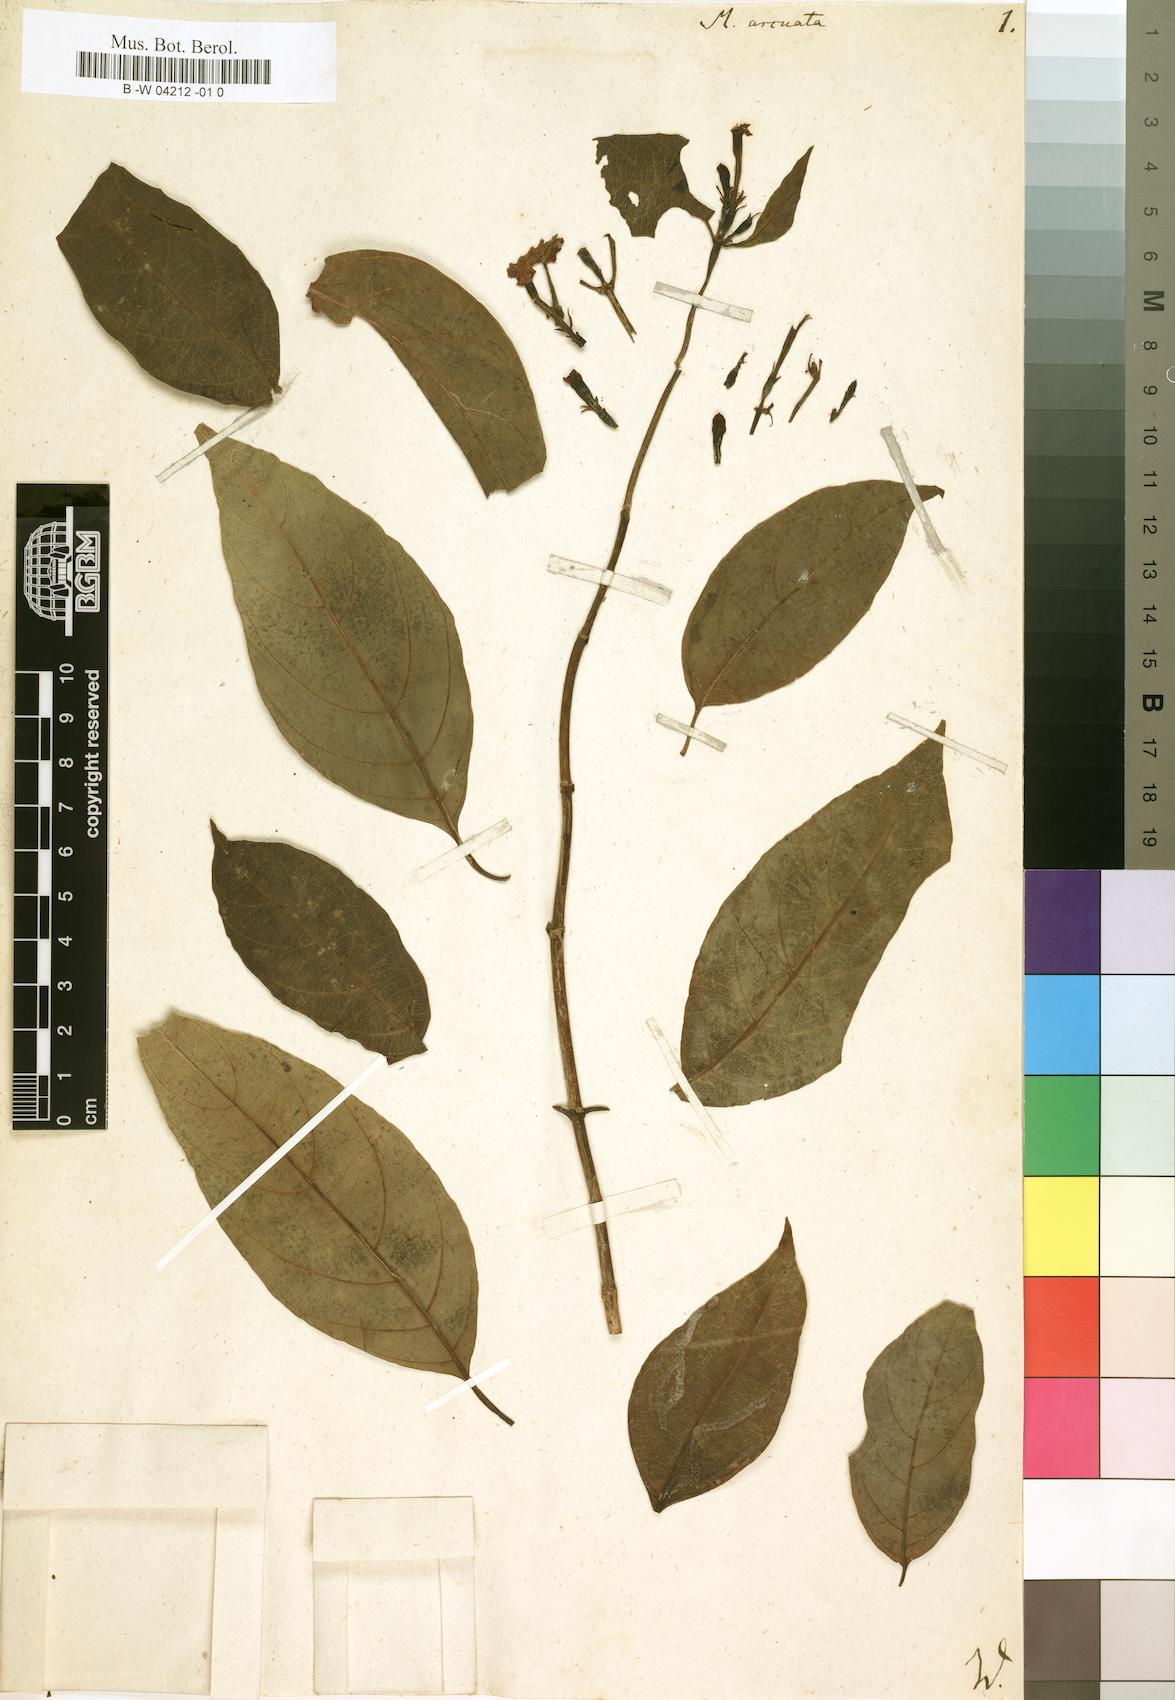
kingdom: Plantae
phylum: Tracheophyta
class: Magnoliopsida
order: Gentianales
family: Rubiaceae
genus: Mussaenda
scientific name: Mussaenda arcuata
